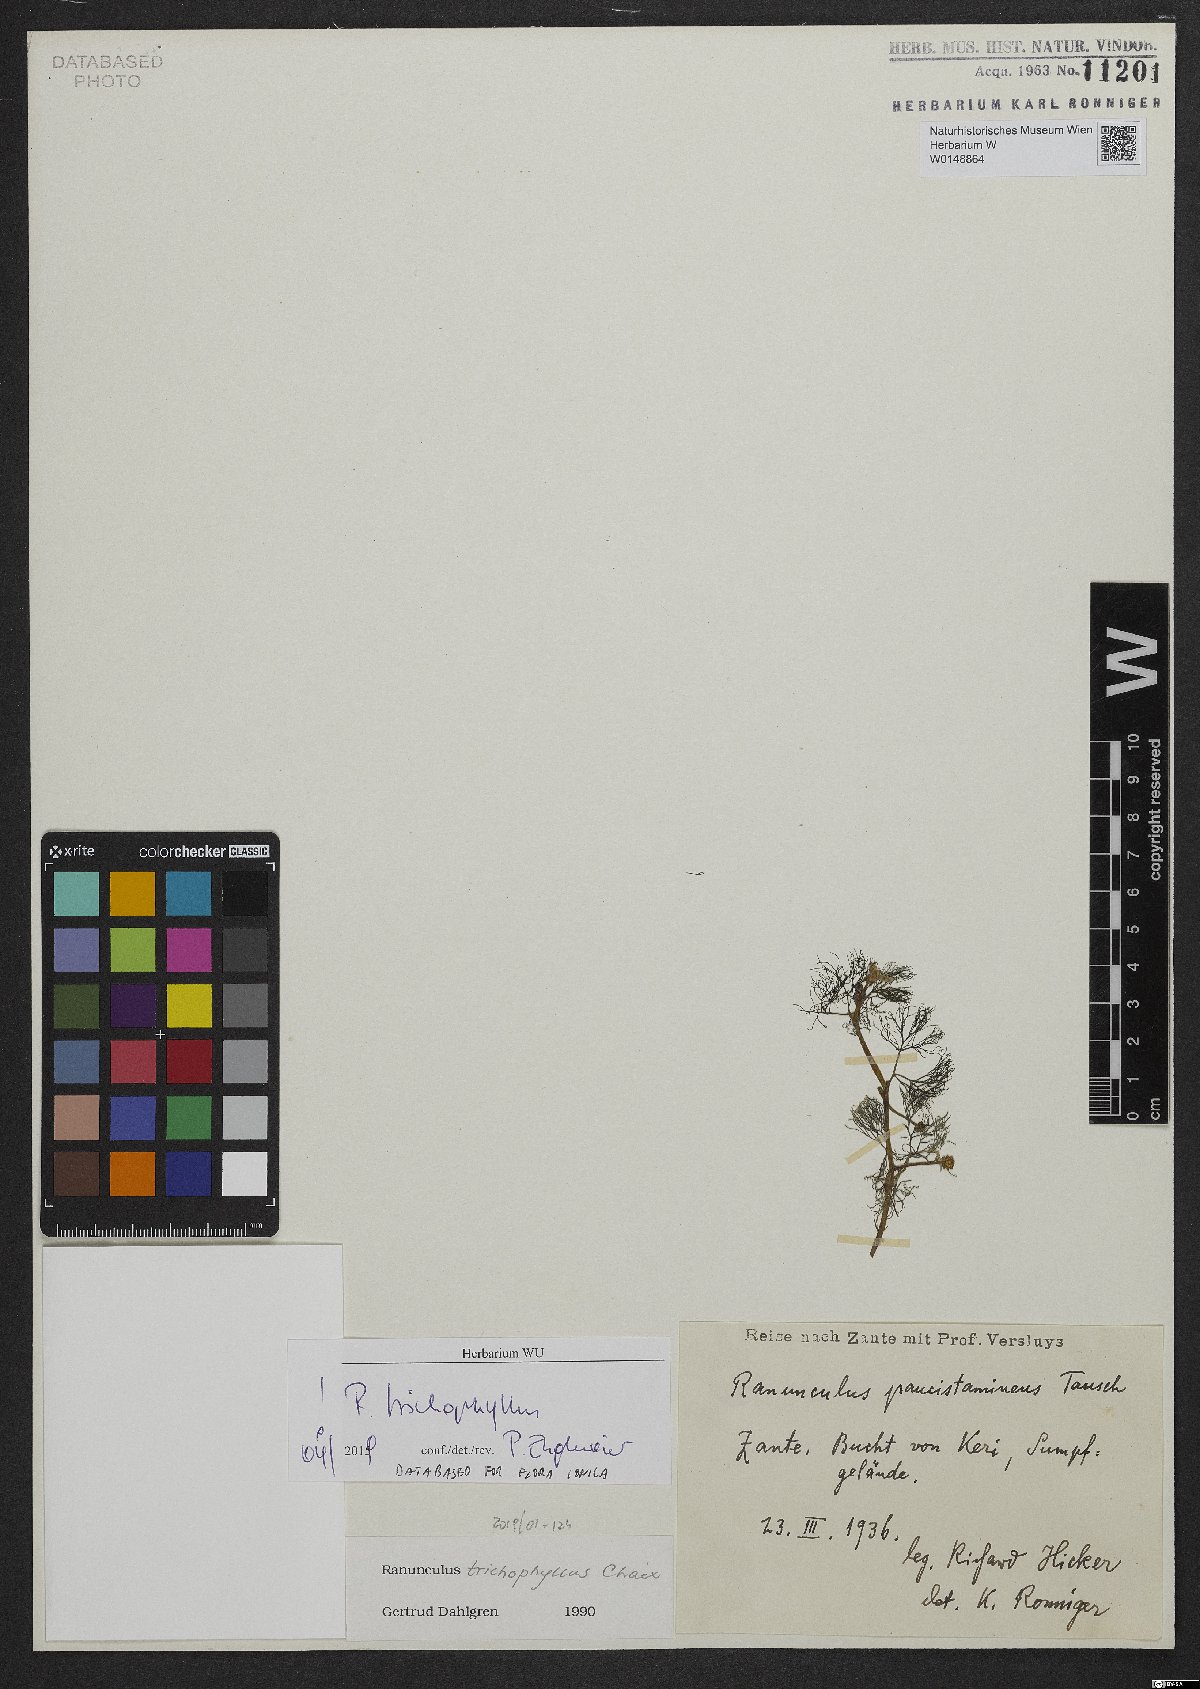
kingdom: Plantae
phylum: Tracheophyta
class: Magnoliopsida
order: Ranunculales
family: Ranunculaceae
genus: Ranunculus
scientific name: Ranunculus trichophyllus
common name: Thread-leaved water-crowfoot
